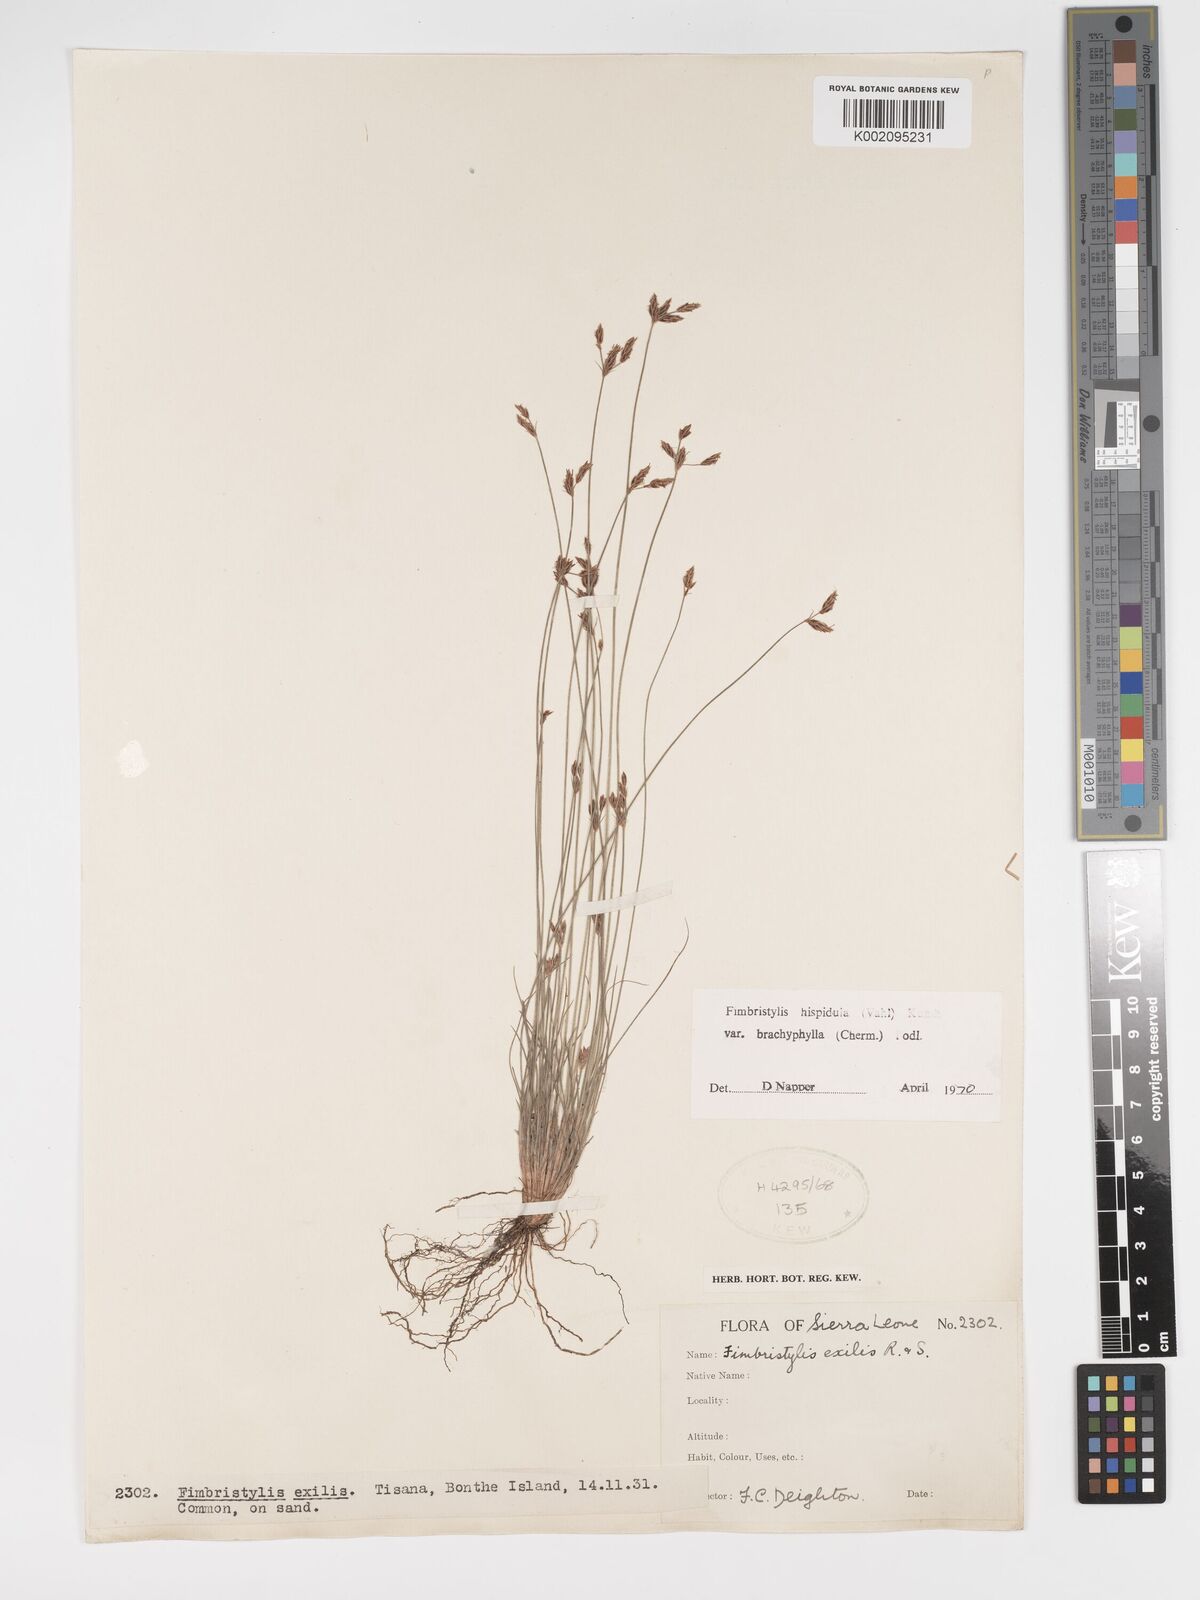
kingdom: Plantae
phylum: Tracheophyta
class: Liliopsida
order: Poales
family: Cyperaceae
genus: Bulbostylis
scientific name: Bulbostylis hispidula
